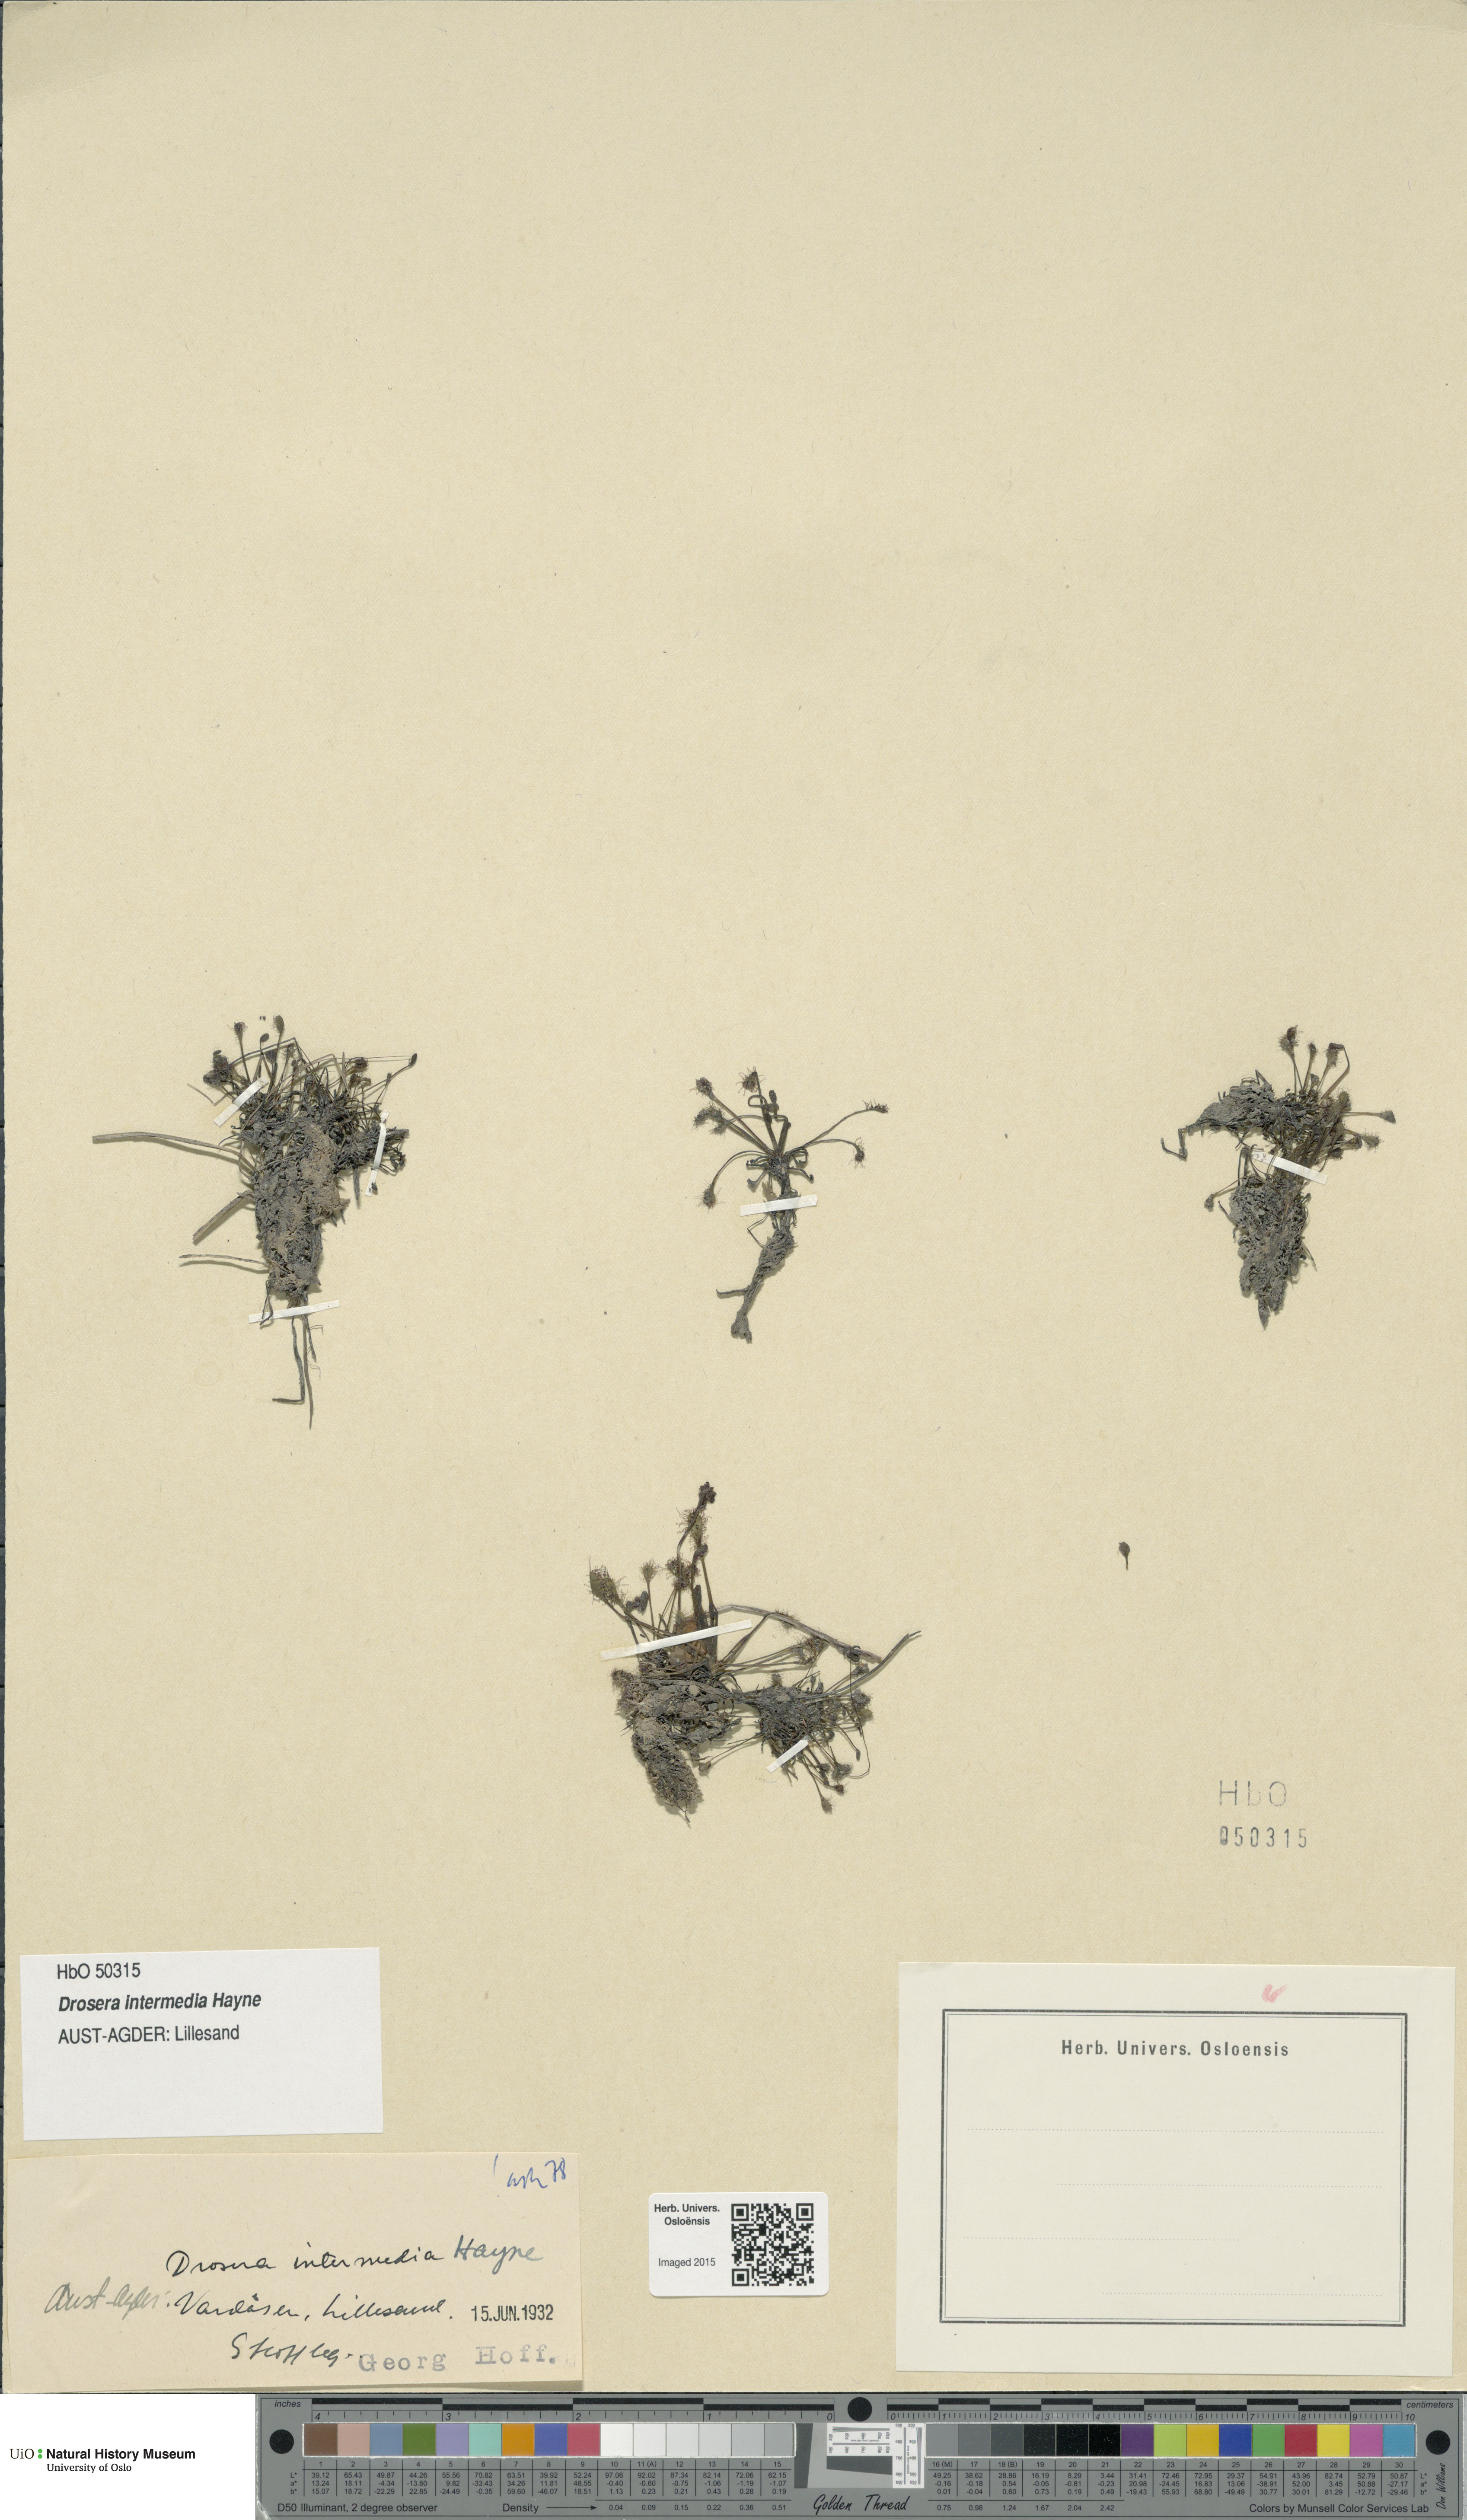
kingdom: Plantae
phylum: Tracheophyta
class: Magnoliopsida
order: Caryophyllales
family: Droseraceae
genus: Drosera
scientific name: Drosera intermedia
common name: Oblong-leaved sundew
